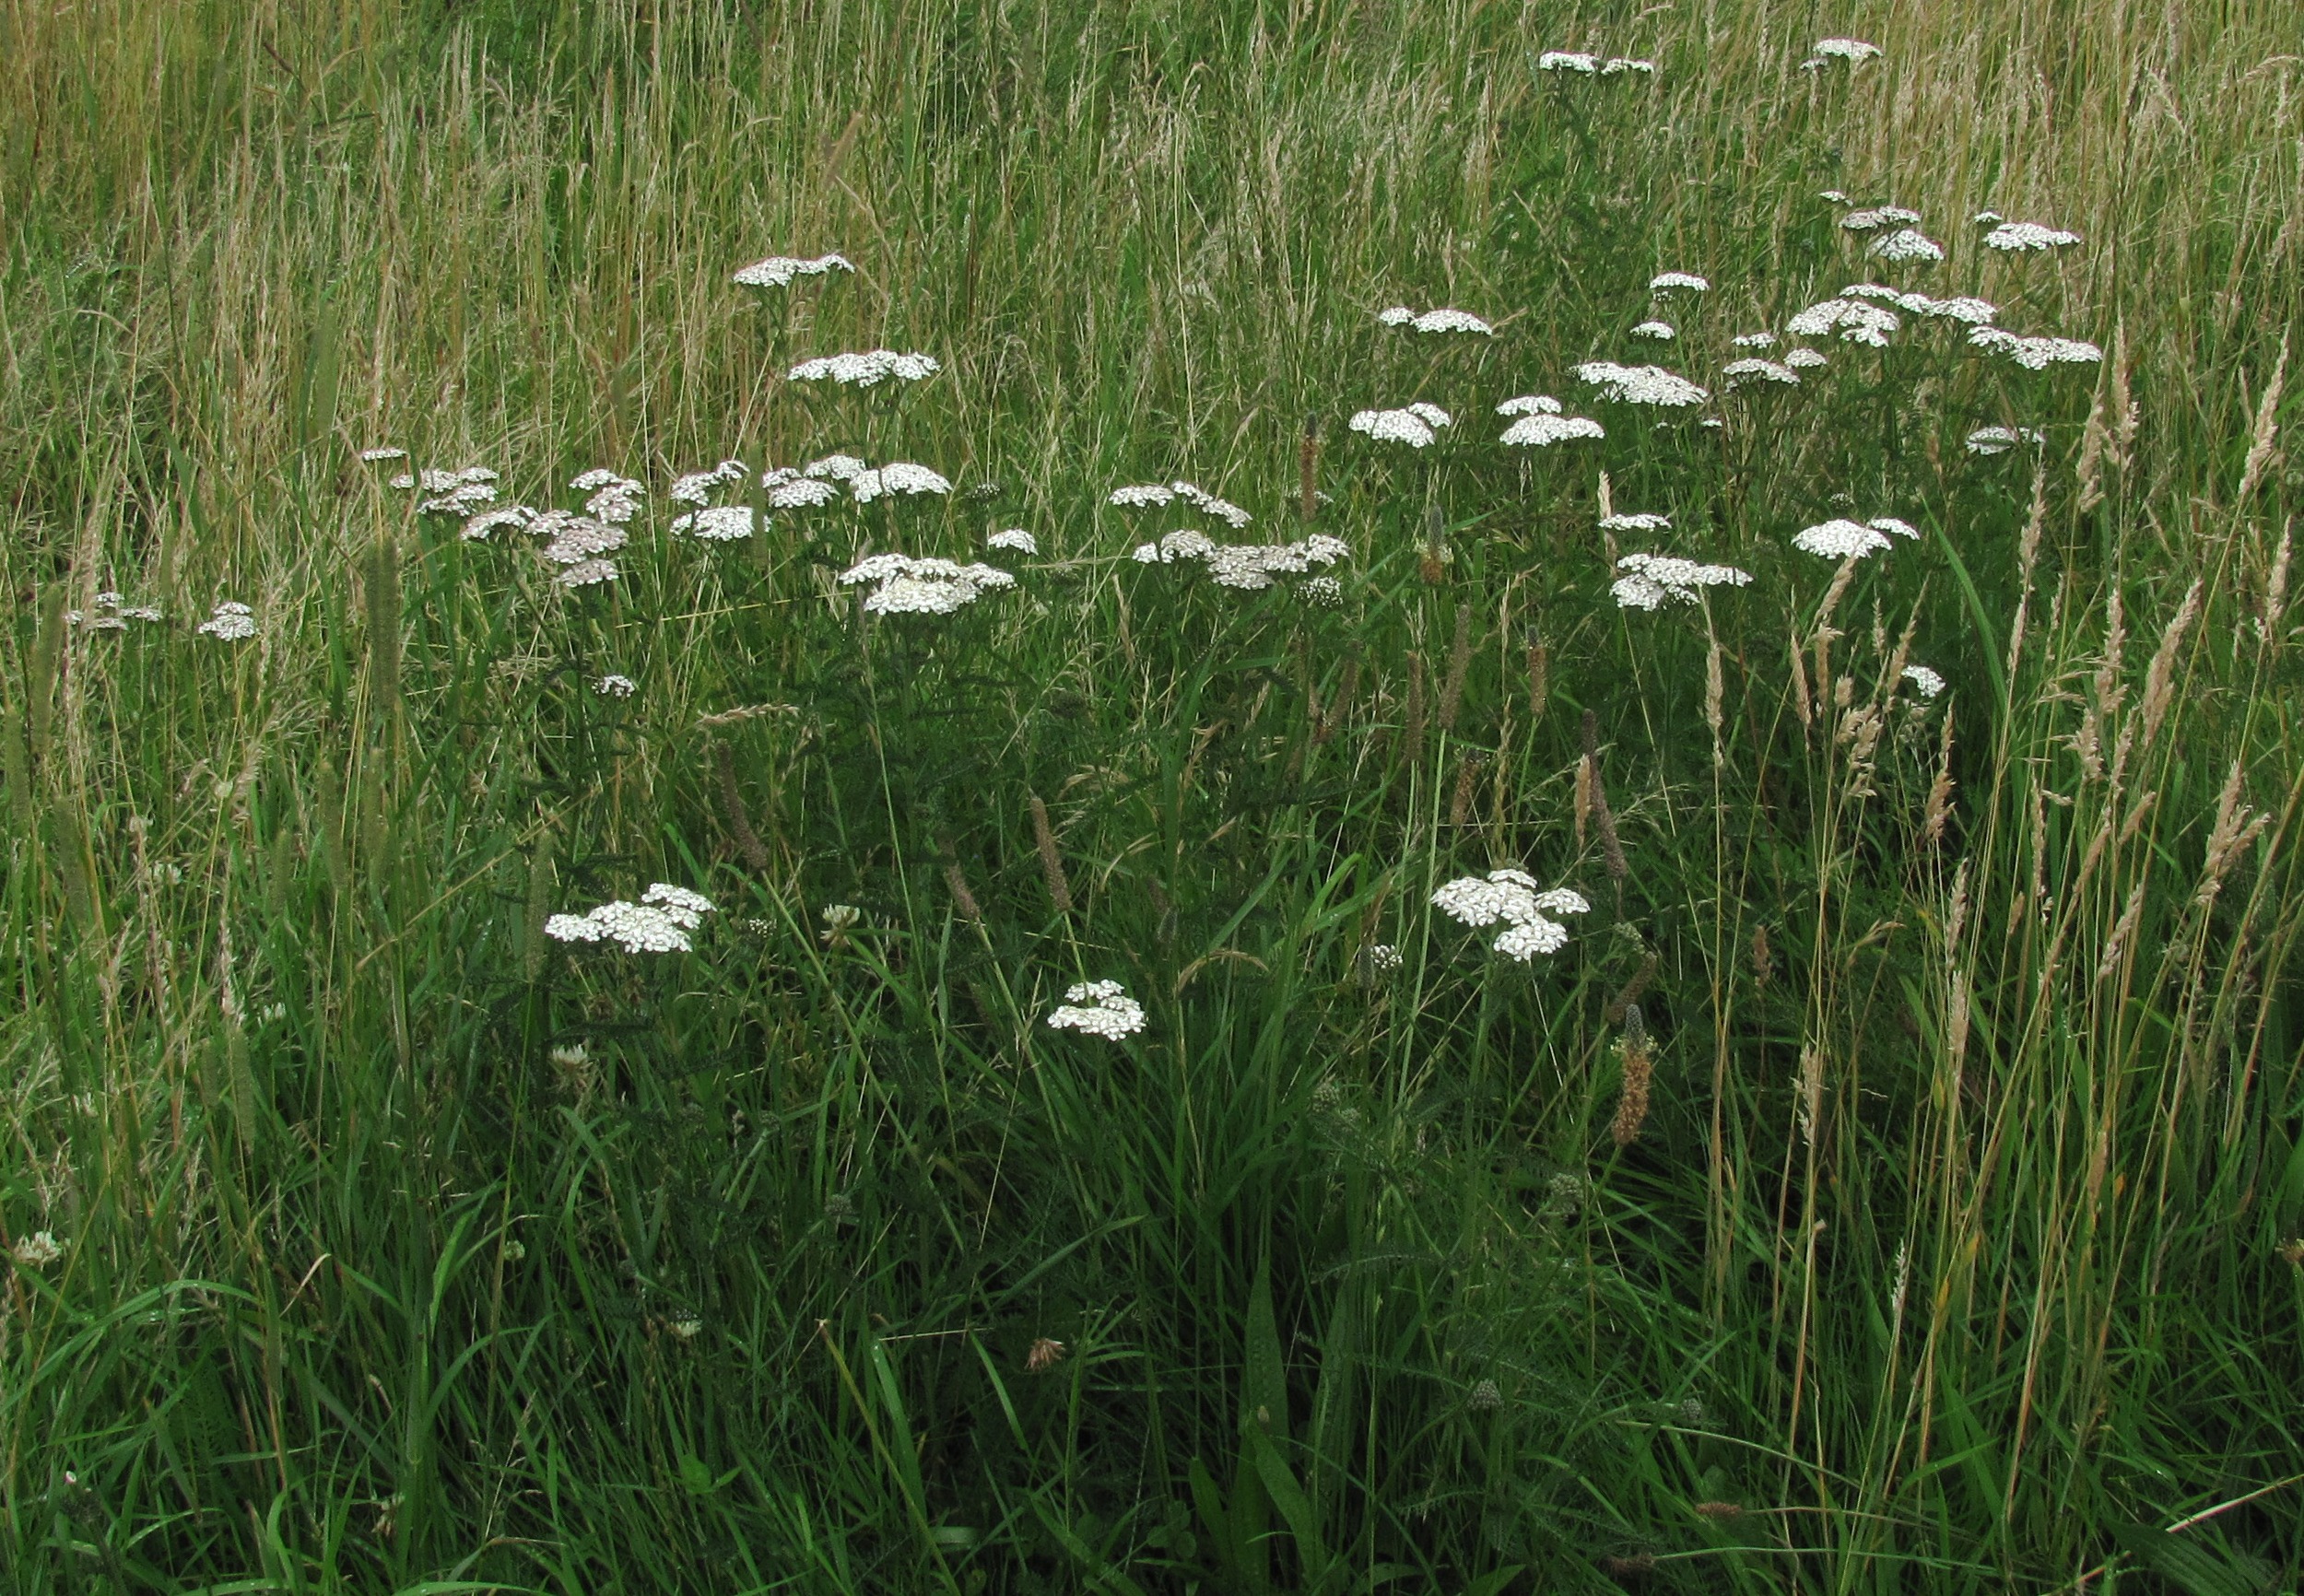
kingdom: Plantae
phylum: Tracheophyta
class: Magnoliopsida
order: Asterales
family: Asteraceae
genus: Achillea
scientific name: Achillea millefolium
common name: Almindelig røllike
